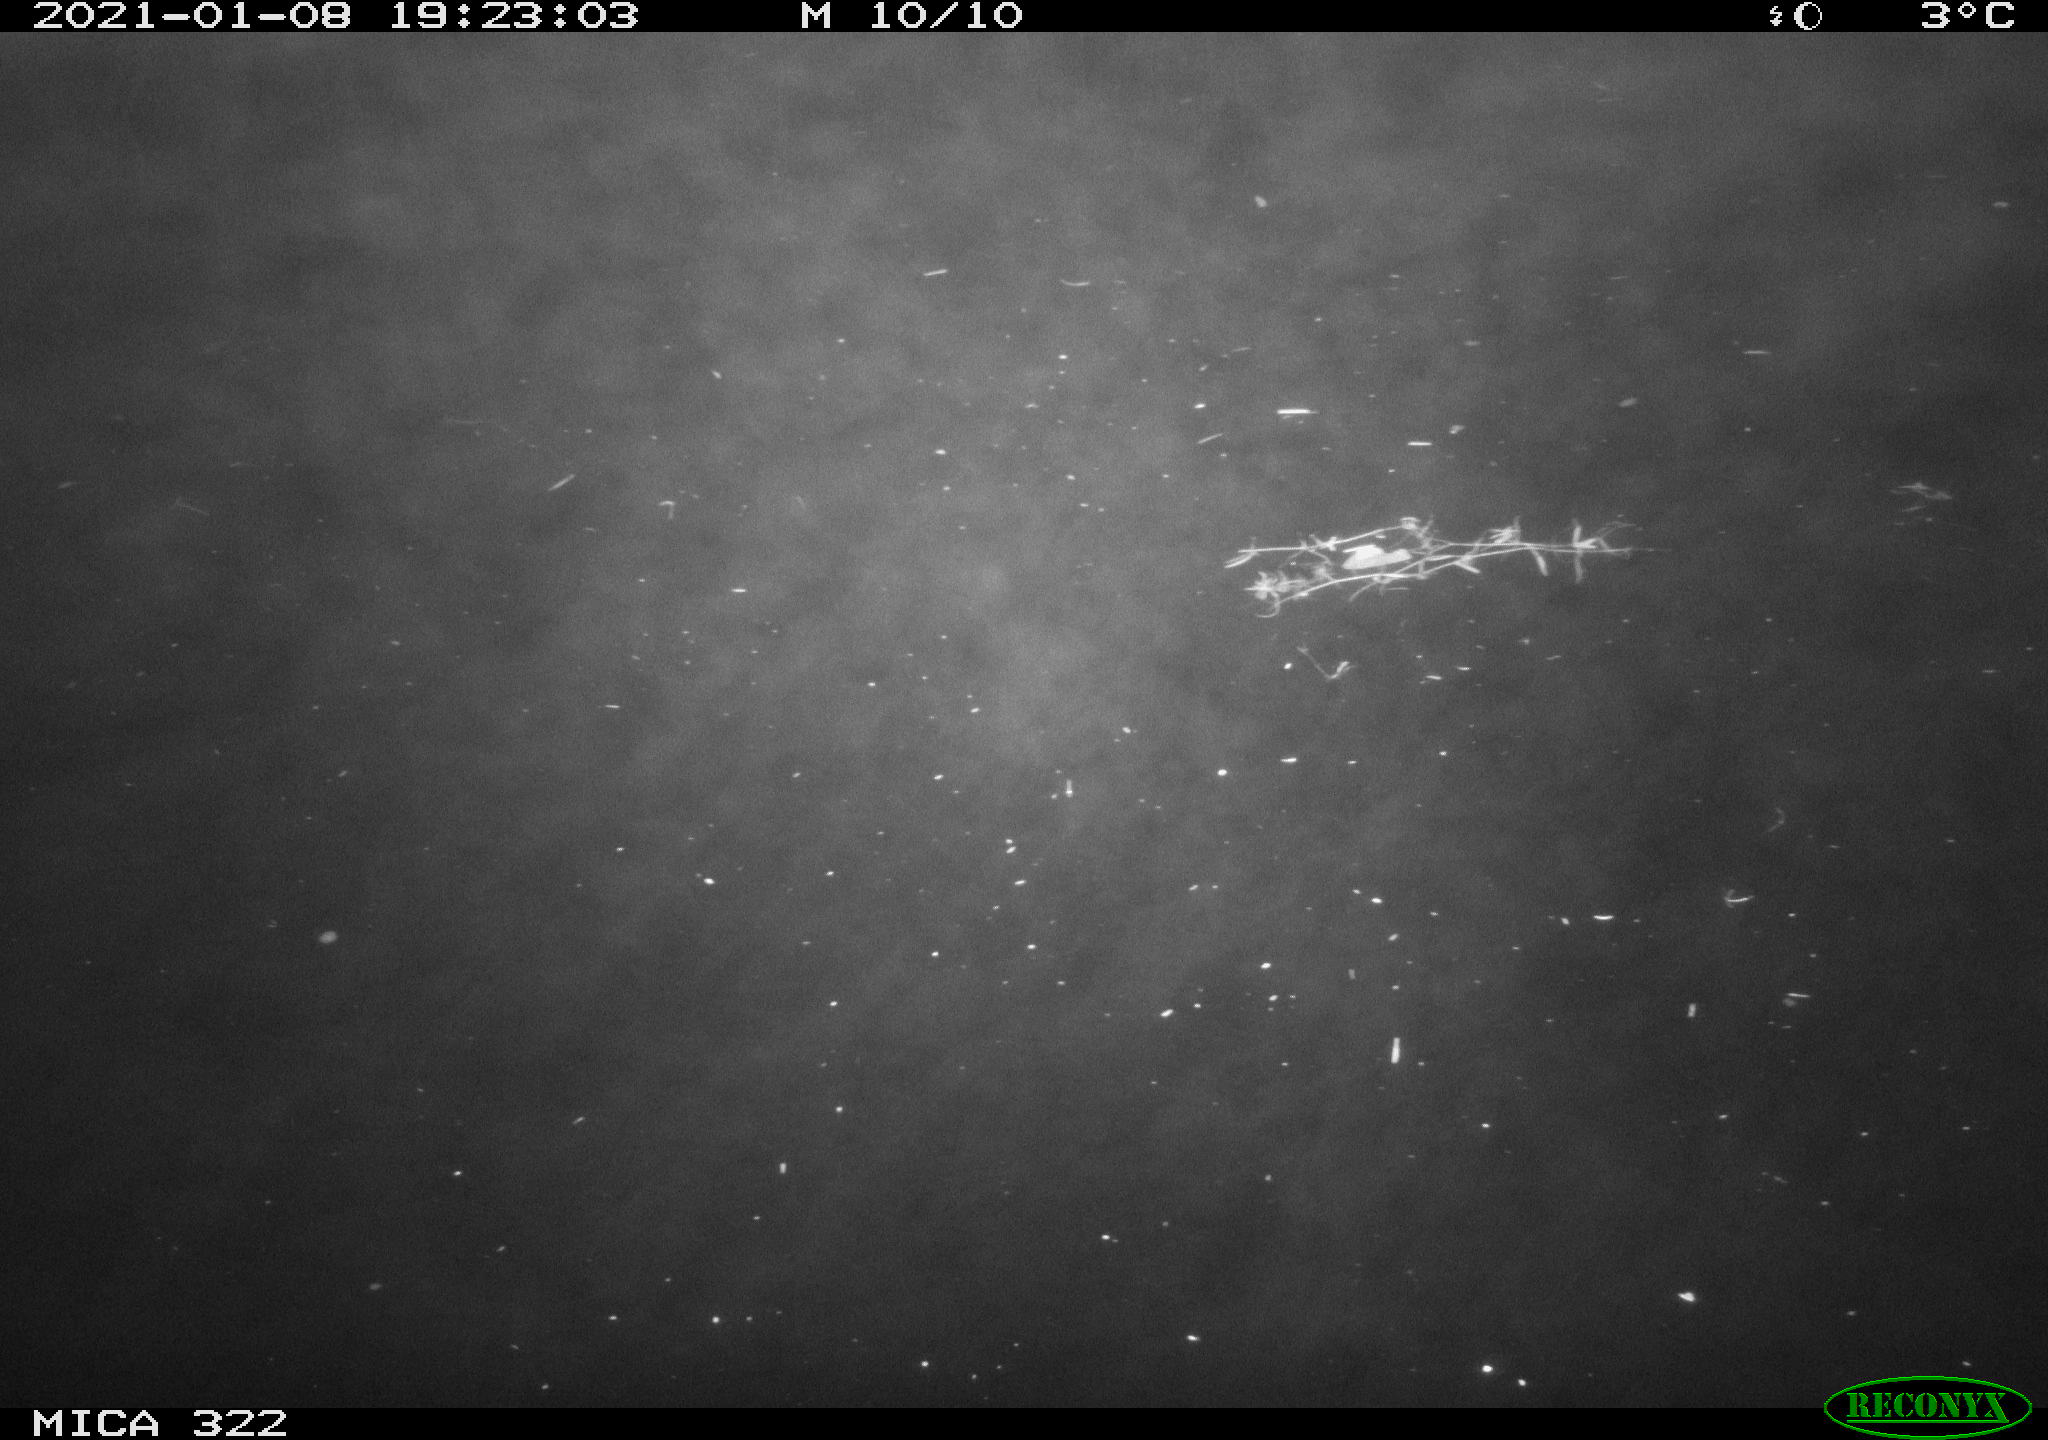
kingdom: Animalia
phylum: Chordata
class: Mammalia
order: Rodentia
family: Muridae
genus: Rattus
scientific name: Rattus norvegicus
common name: Brown rat
